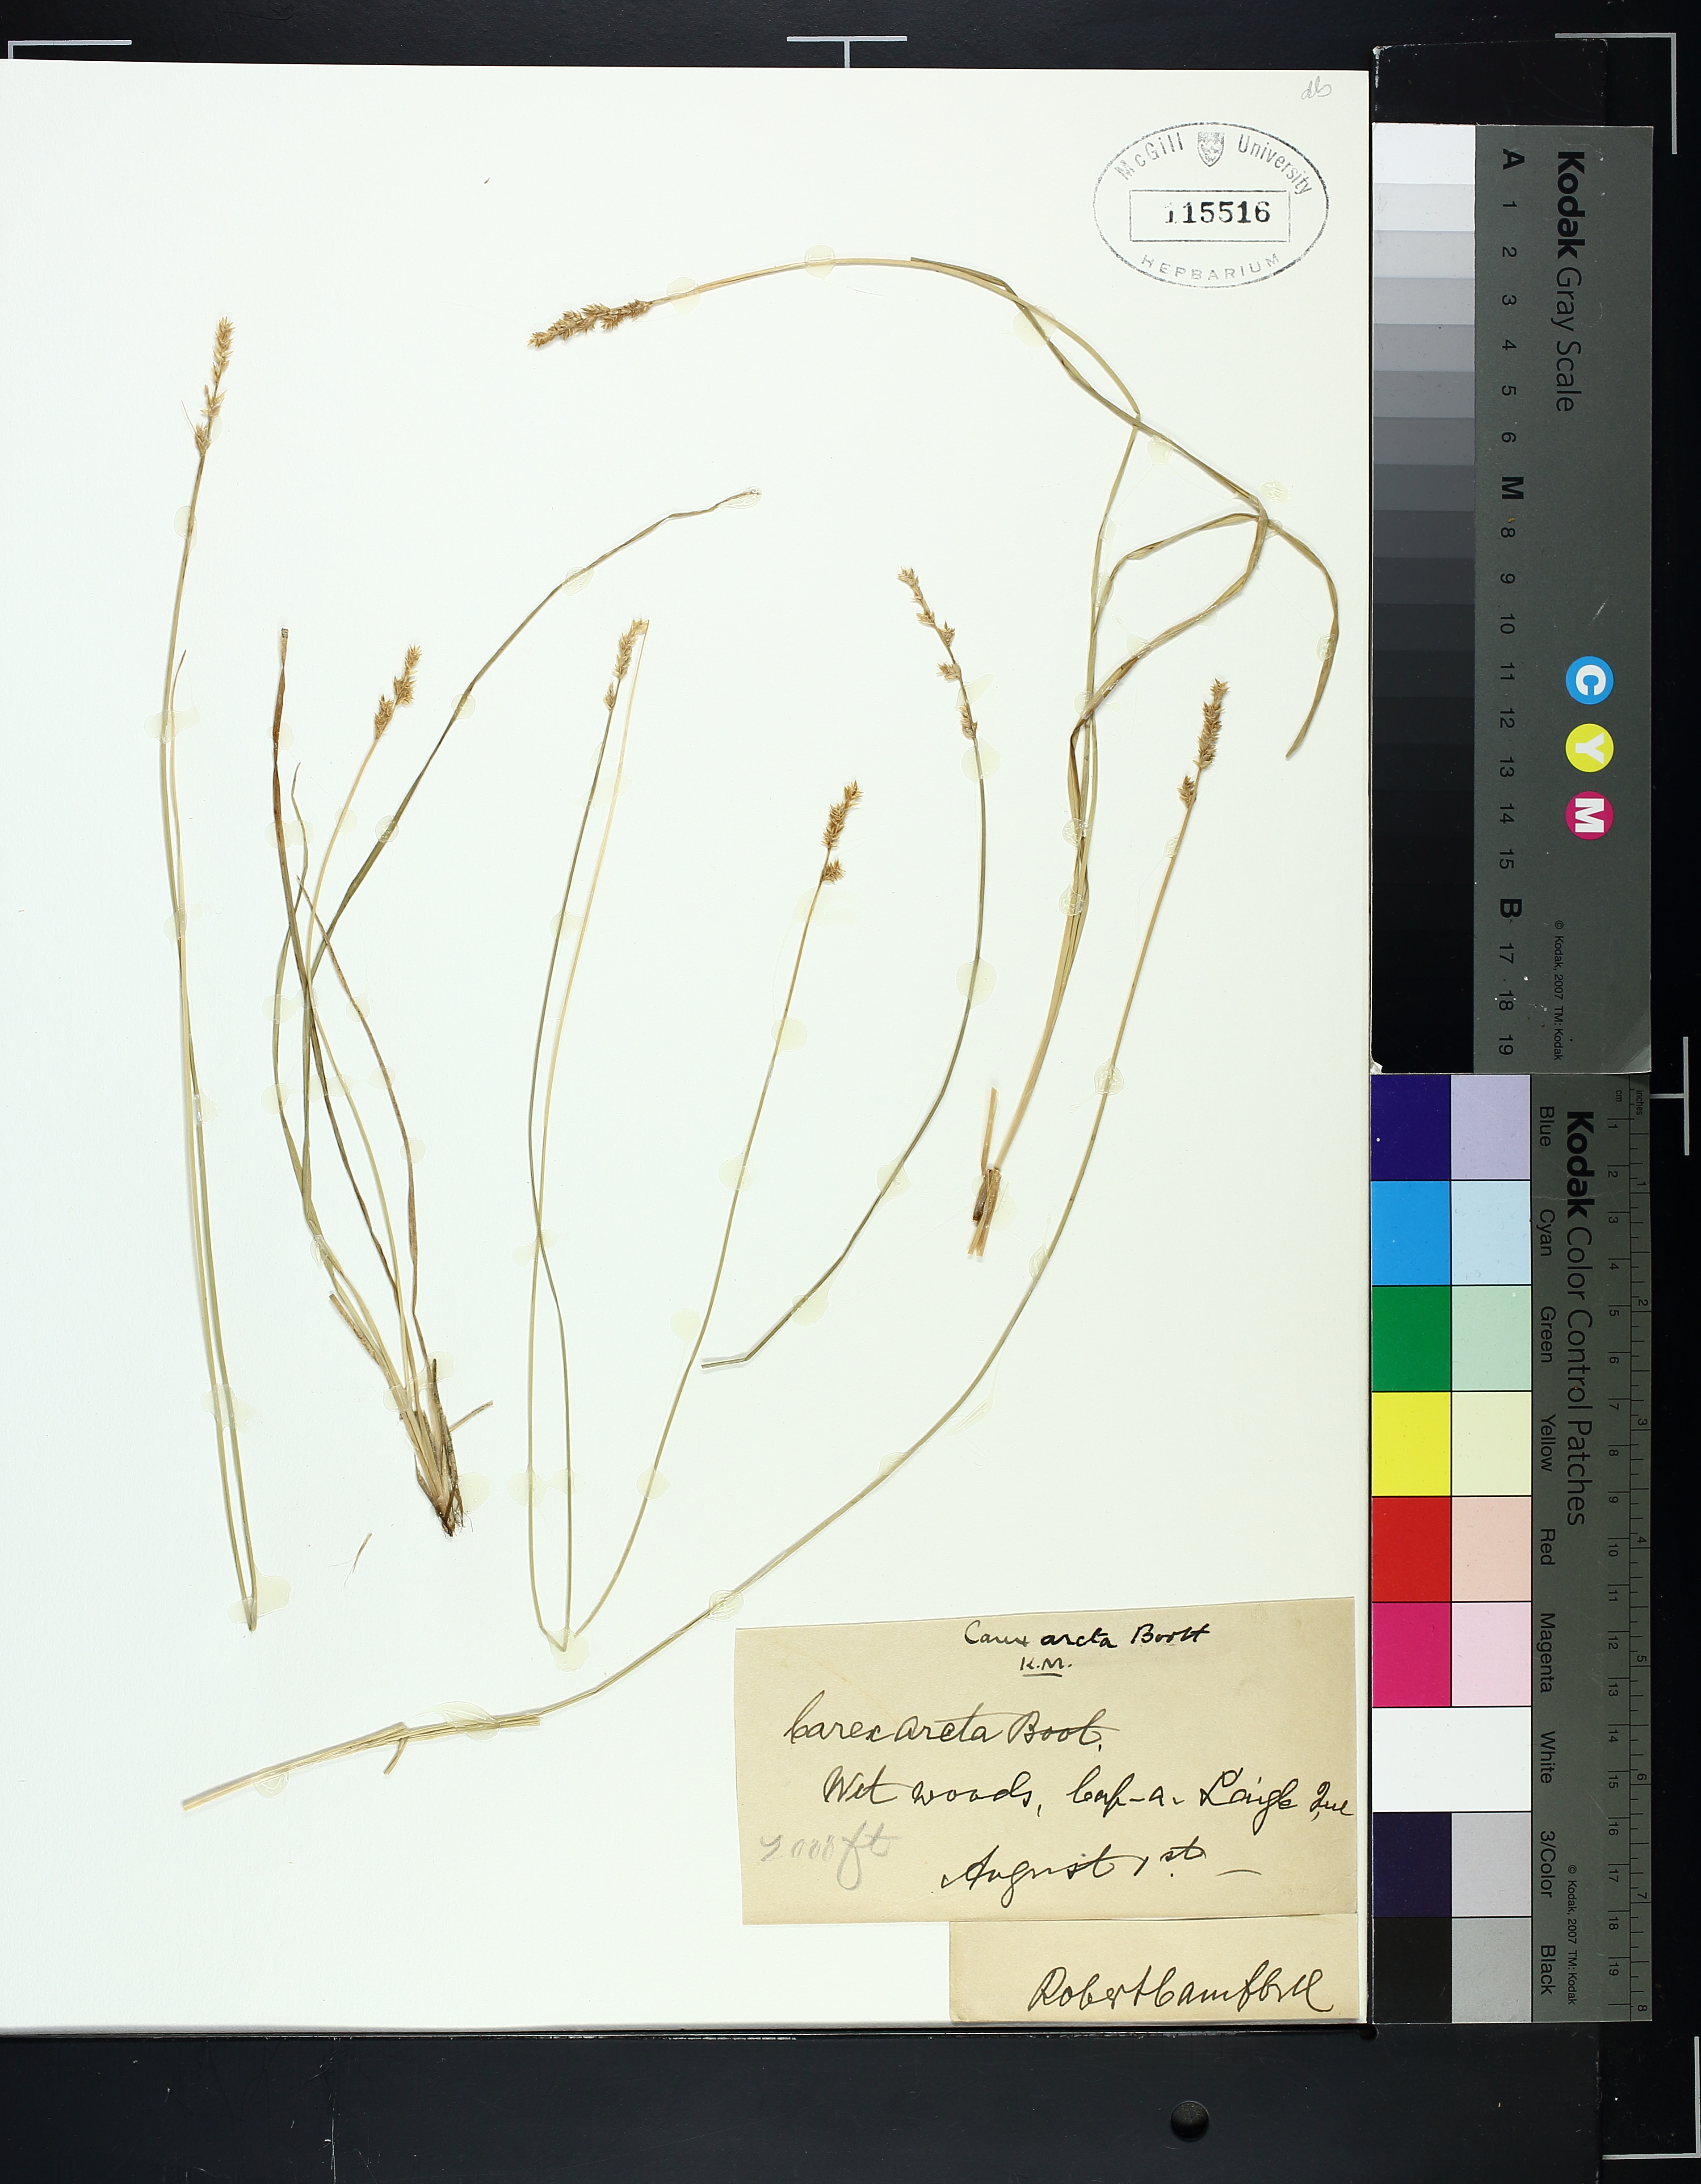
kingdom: Plantae
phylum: Tracheophyta
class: Liliopsida
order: Poales
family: Cyperaceae
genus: Carex
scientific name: Carex arcta
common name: Bear sedge
